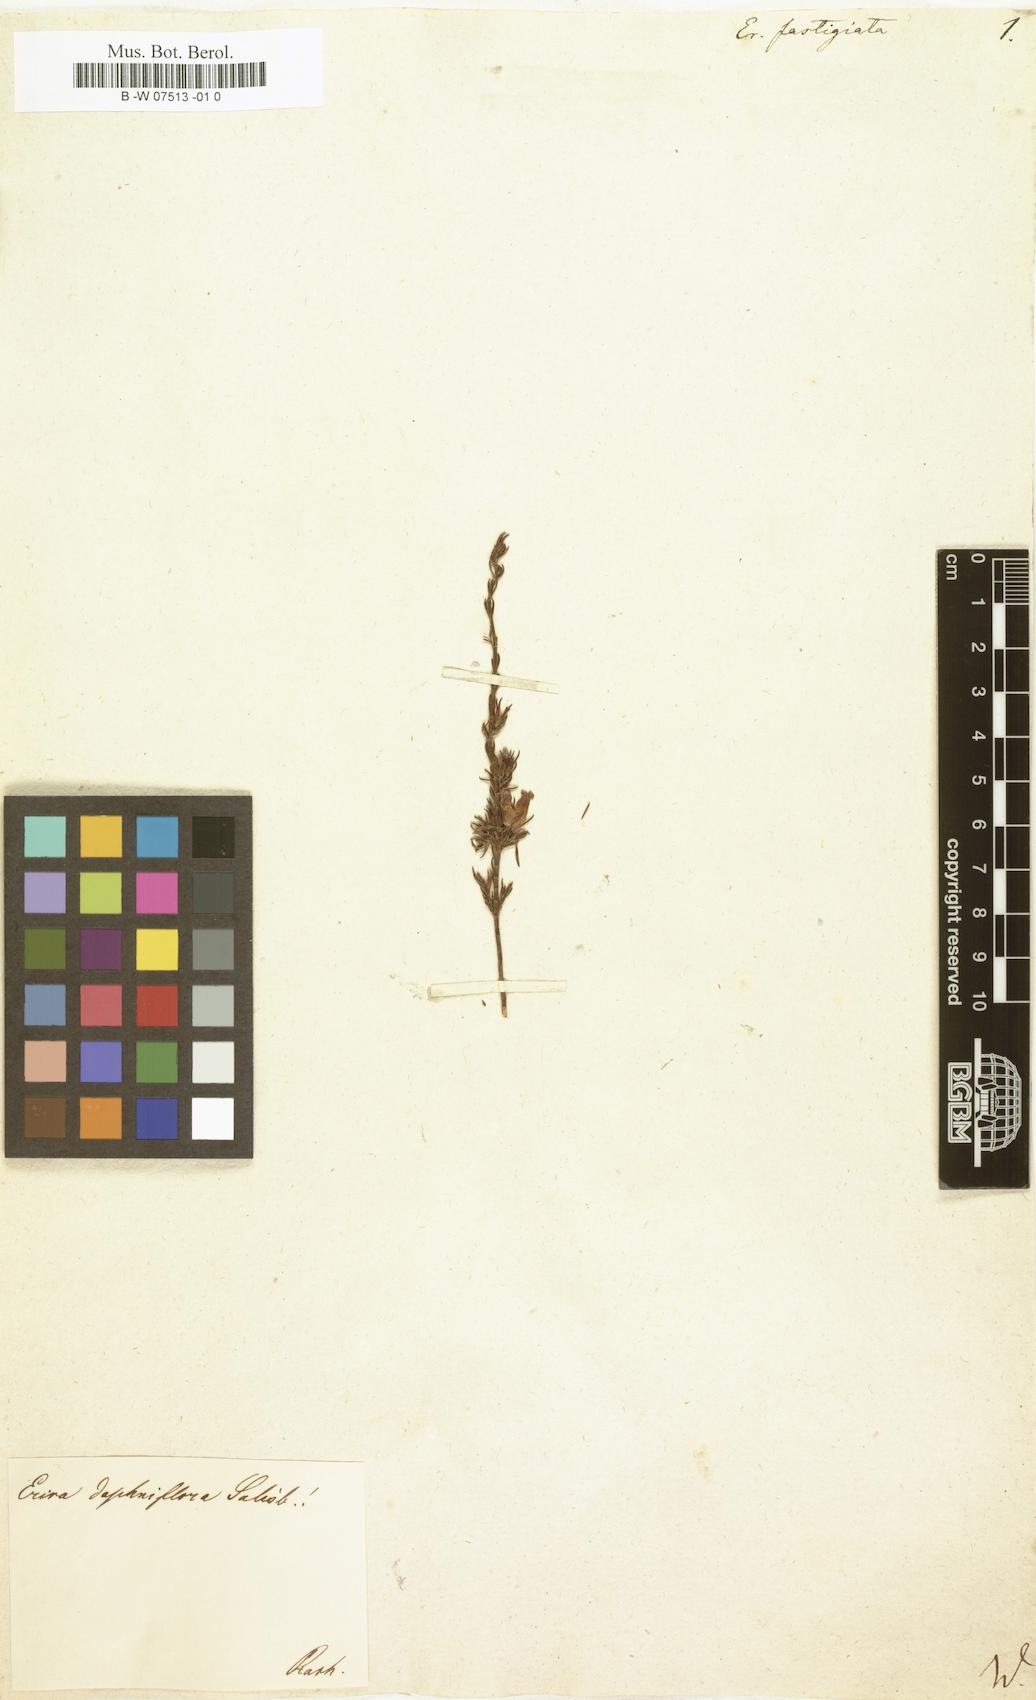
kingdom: Plantae
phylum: Tracheophyta
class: Magnoliopsida
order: Ericales
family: Ericaceae
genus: Erica
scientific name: Erica fastigiata
